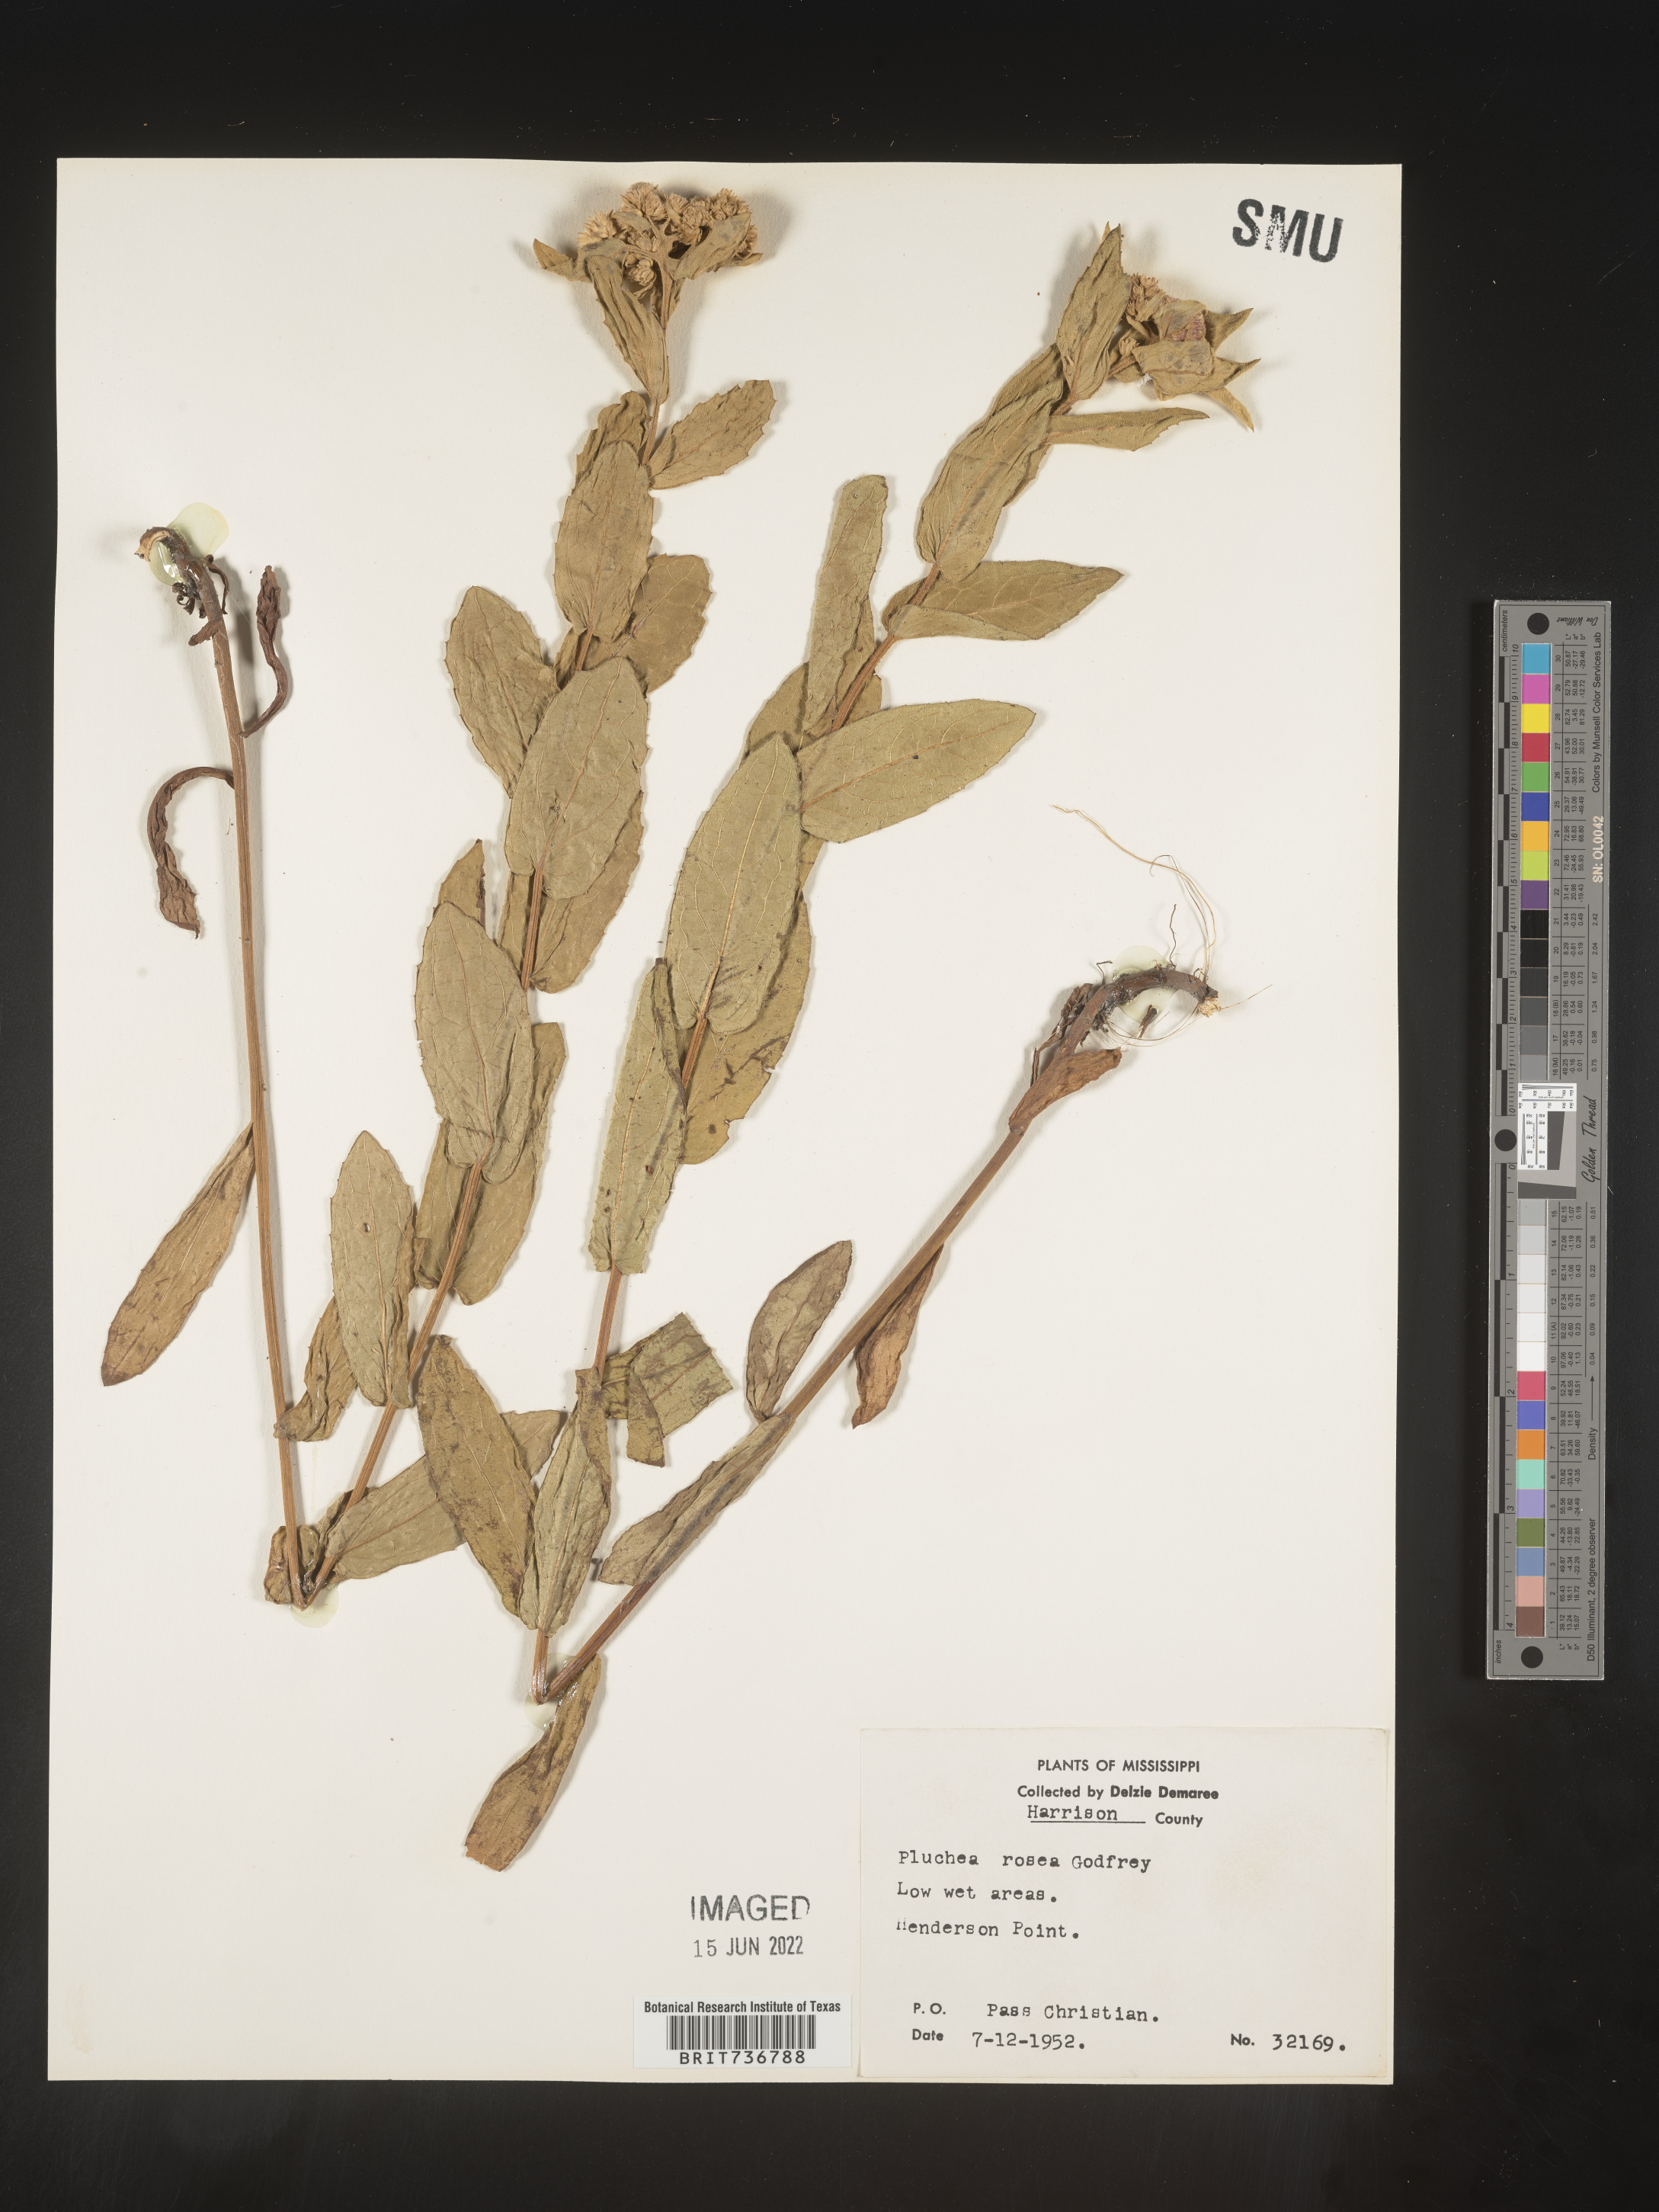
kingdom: Plantae
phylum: Tracheophyta
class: Magnoliopsida
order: Asterales
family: Asteraceae
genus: Pluchea
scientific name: Pluchea baccharis
